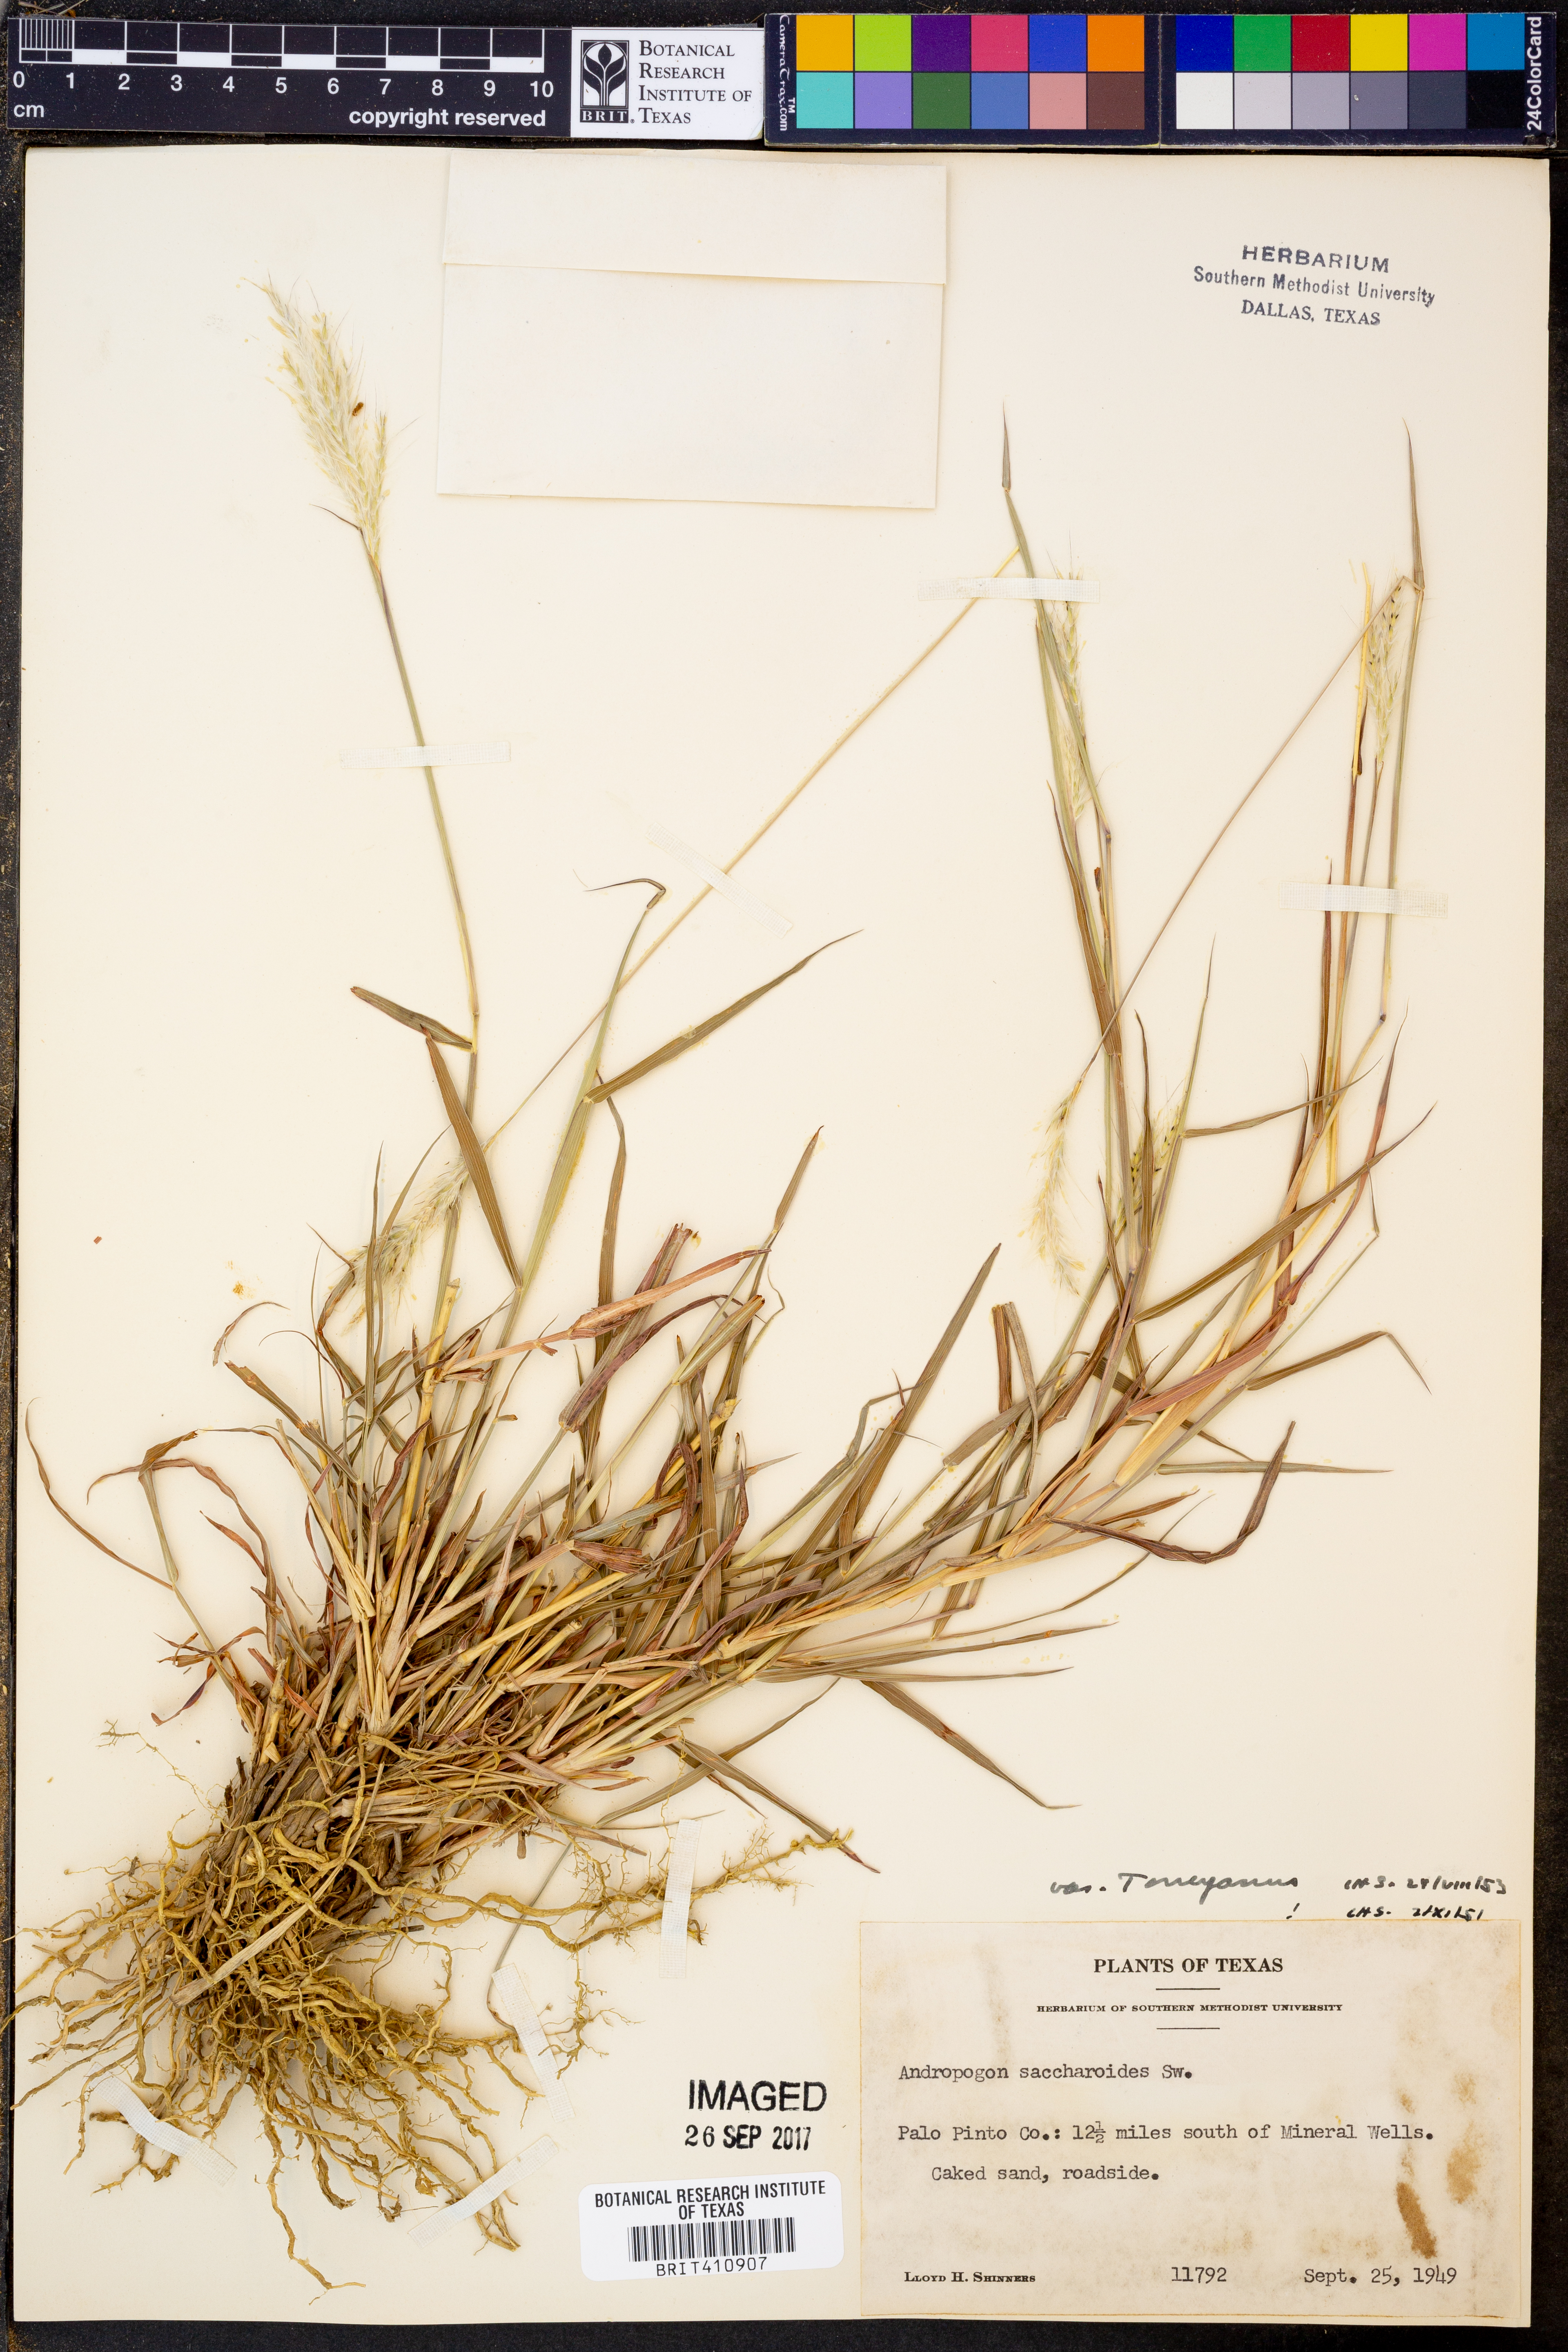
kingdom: Plantae
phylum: Tracheophyta
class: Liliopsida
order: Poales
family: Poaceae
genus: Bothriochloa
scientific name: Bothriochloa torreyana
